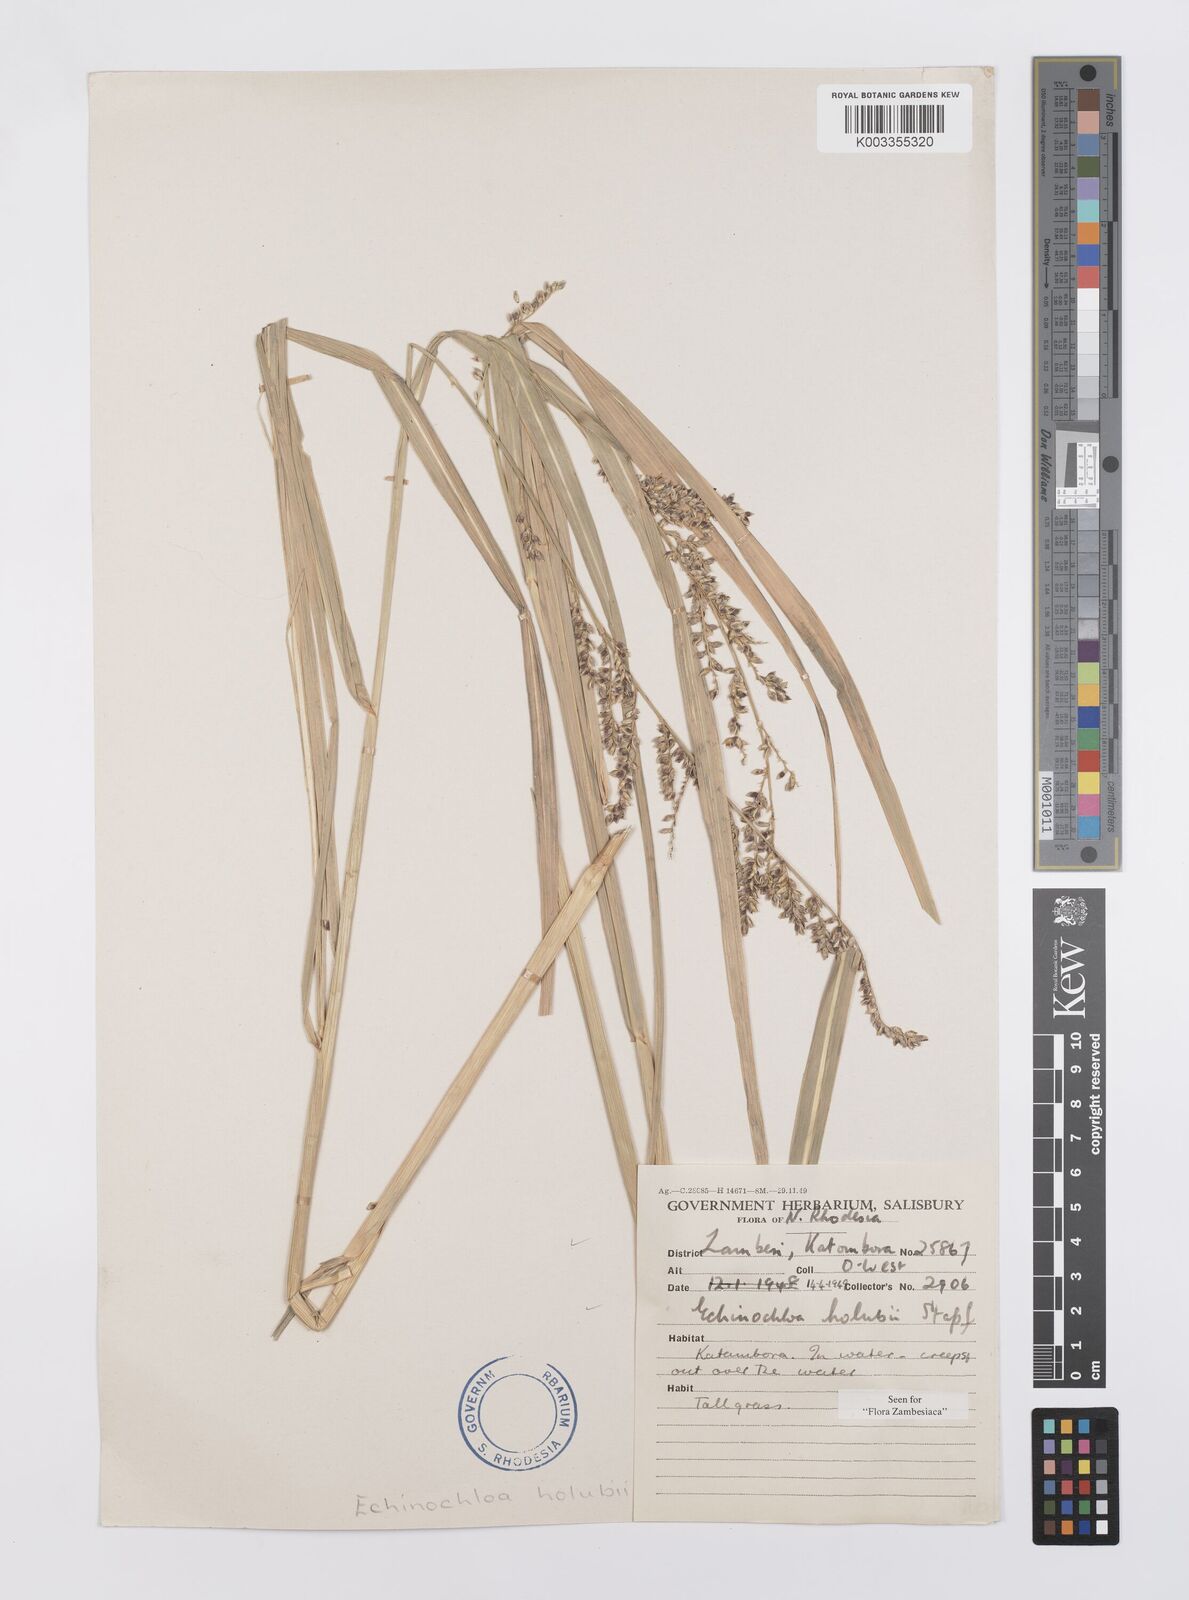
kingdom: Plantae
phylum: Tracheophyta
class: Liliopsida
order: Poales
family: Poaceae
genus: Echinochloa
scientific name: Echinochloa pyramidalis
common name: Antelope grass
